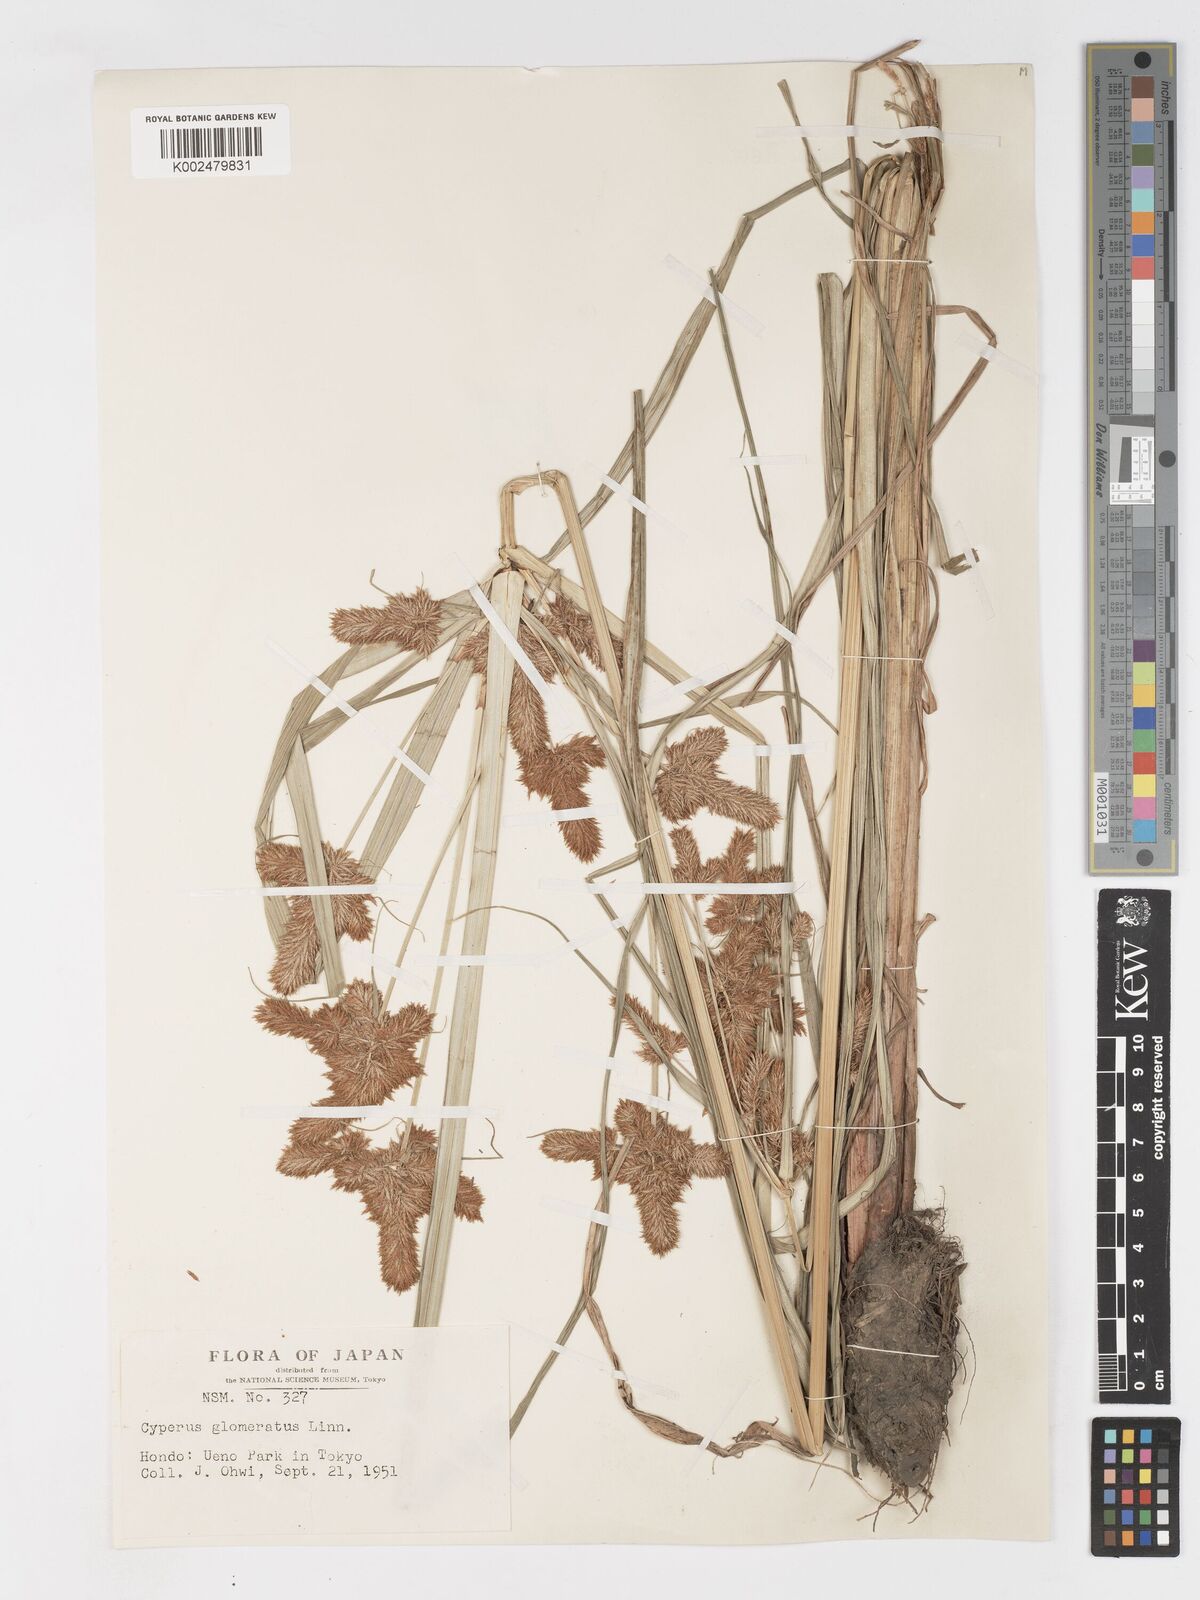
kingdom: Plantae
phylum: Tracheophyta
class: Liliopsida
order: Poales
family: Cyperaceae
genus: Cyperus
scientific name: Cyperus glomeratus
